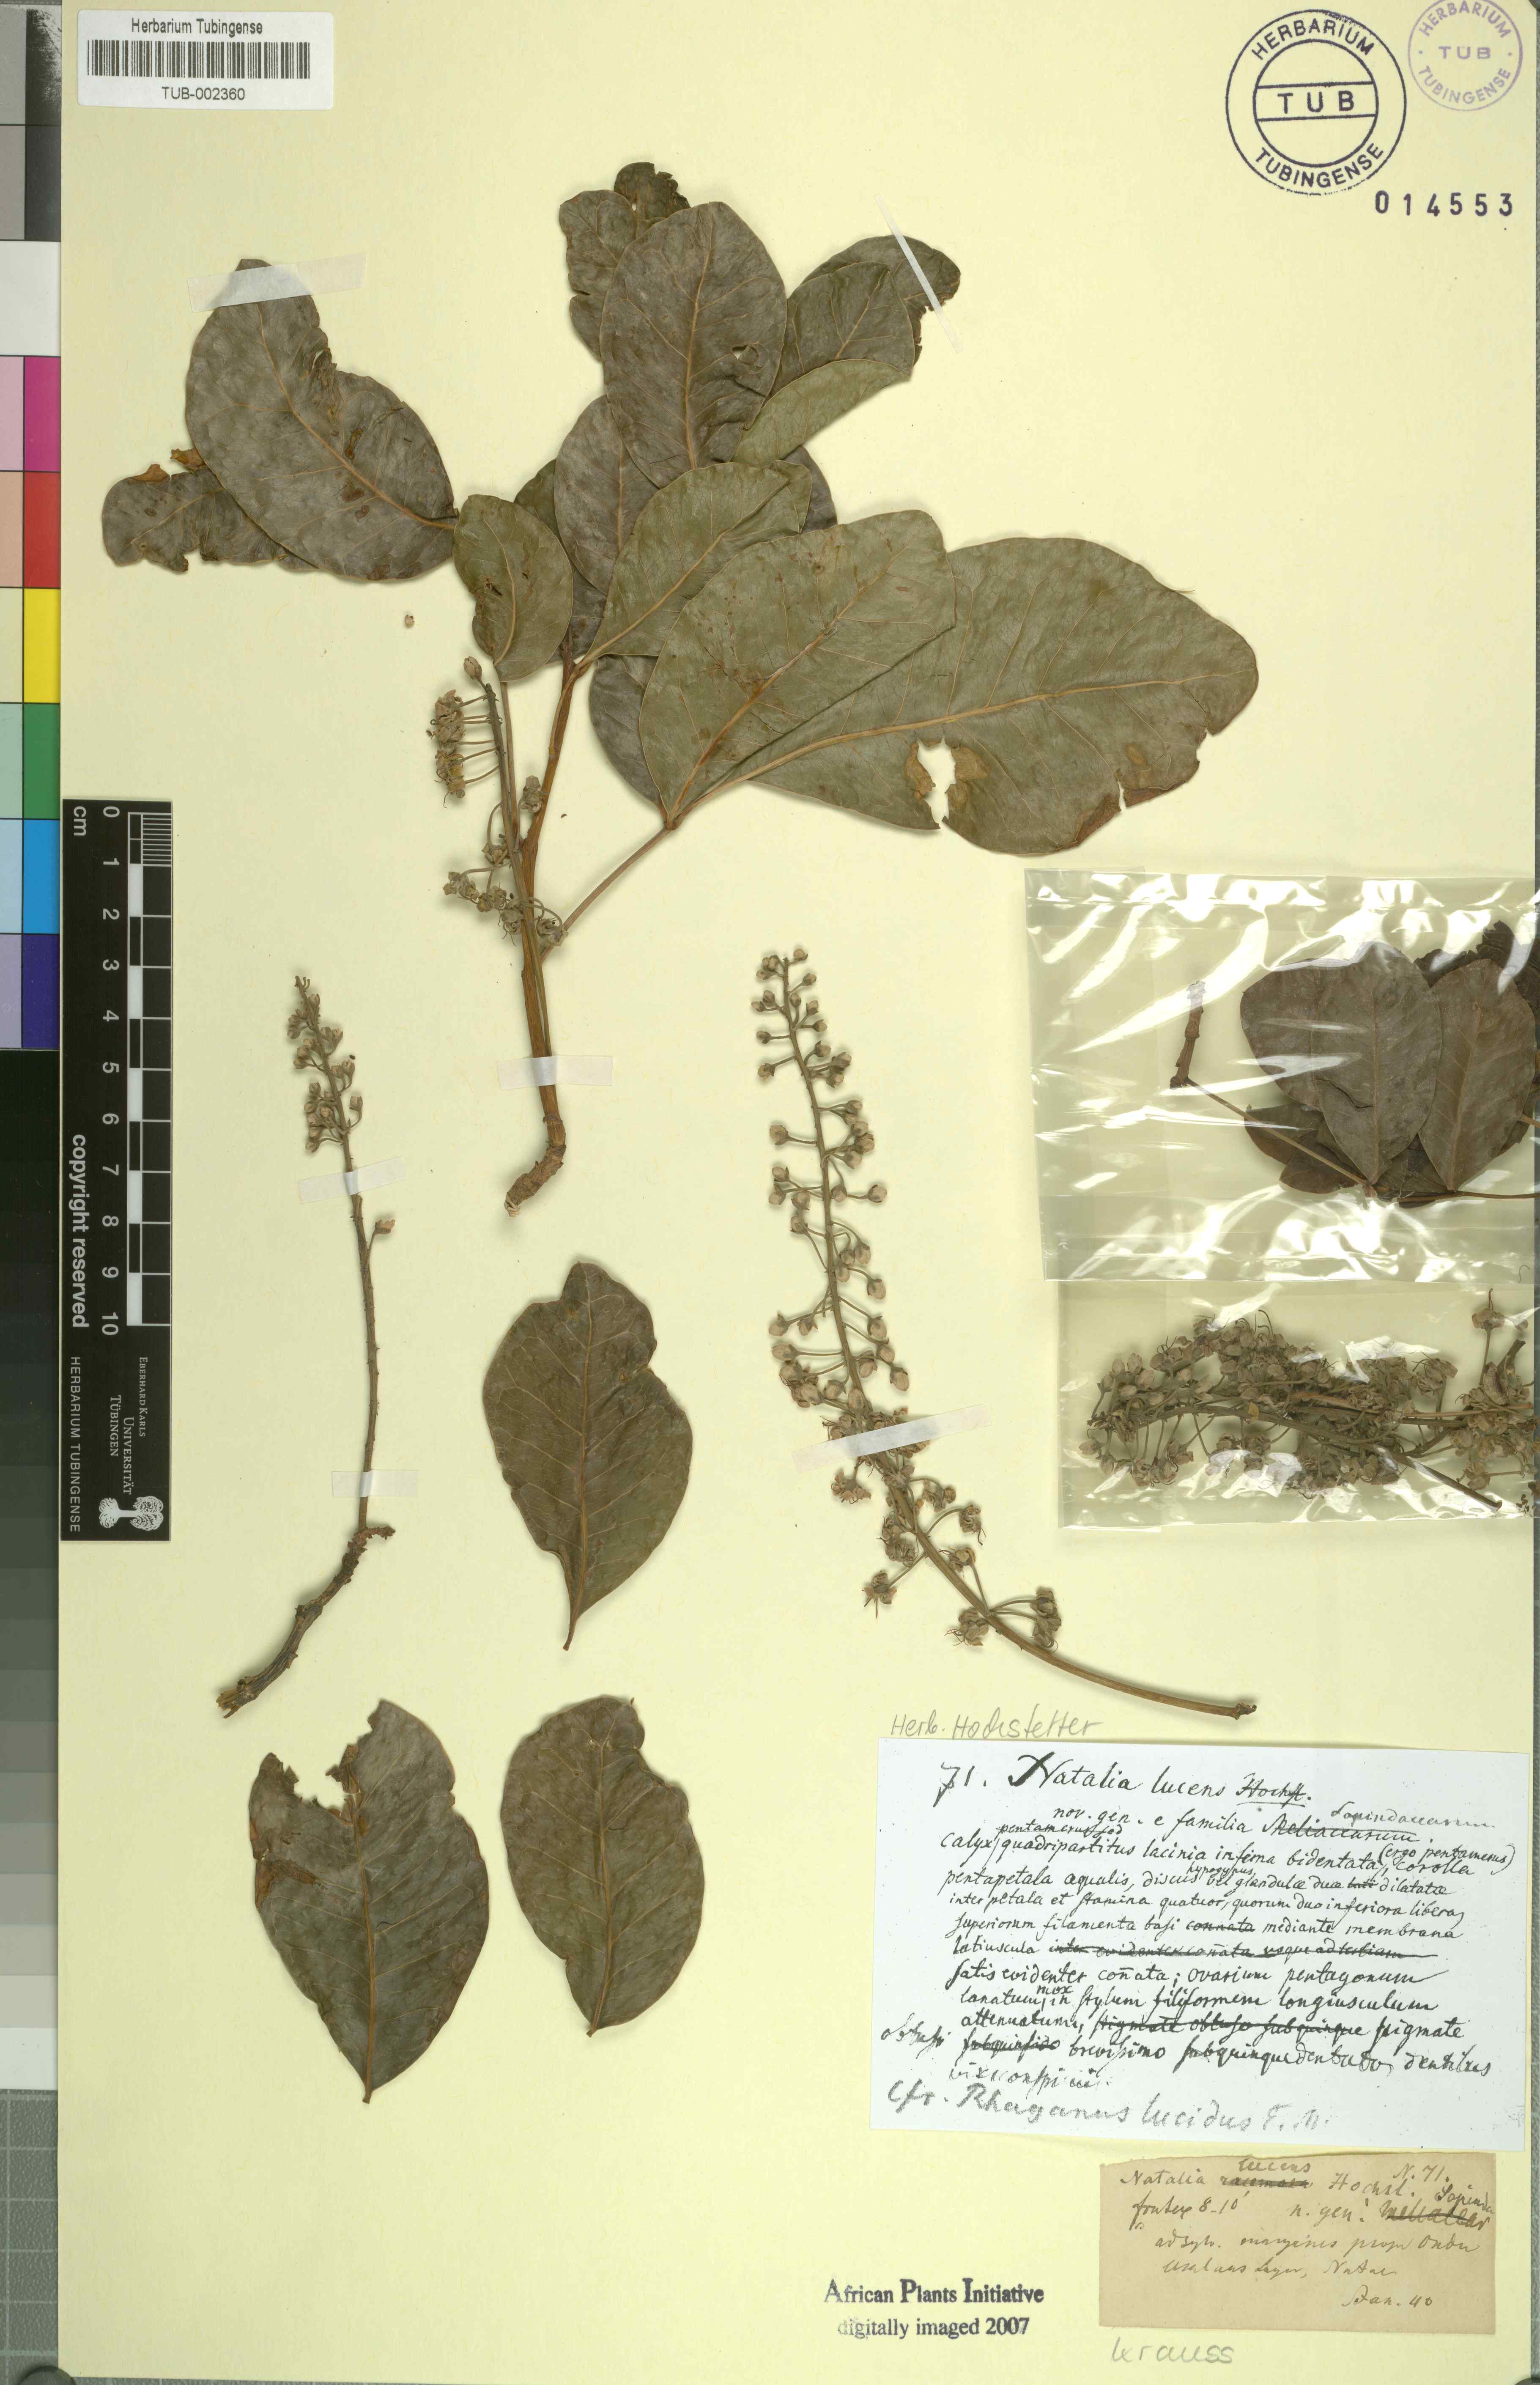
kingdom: Plantae
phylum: Tracheophyta
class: Magnoliopsida
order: Geraniales
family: Melianthaceae
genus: Bersama
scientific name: Bersama lucens
